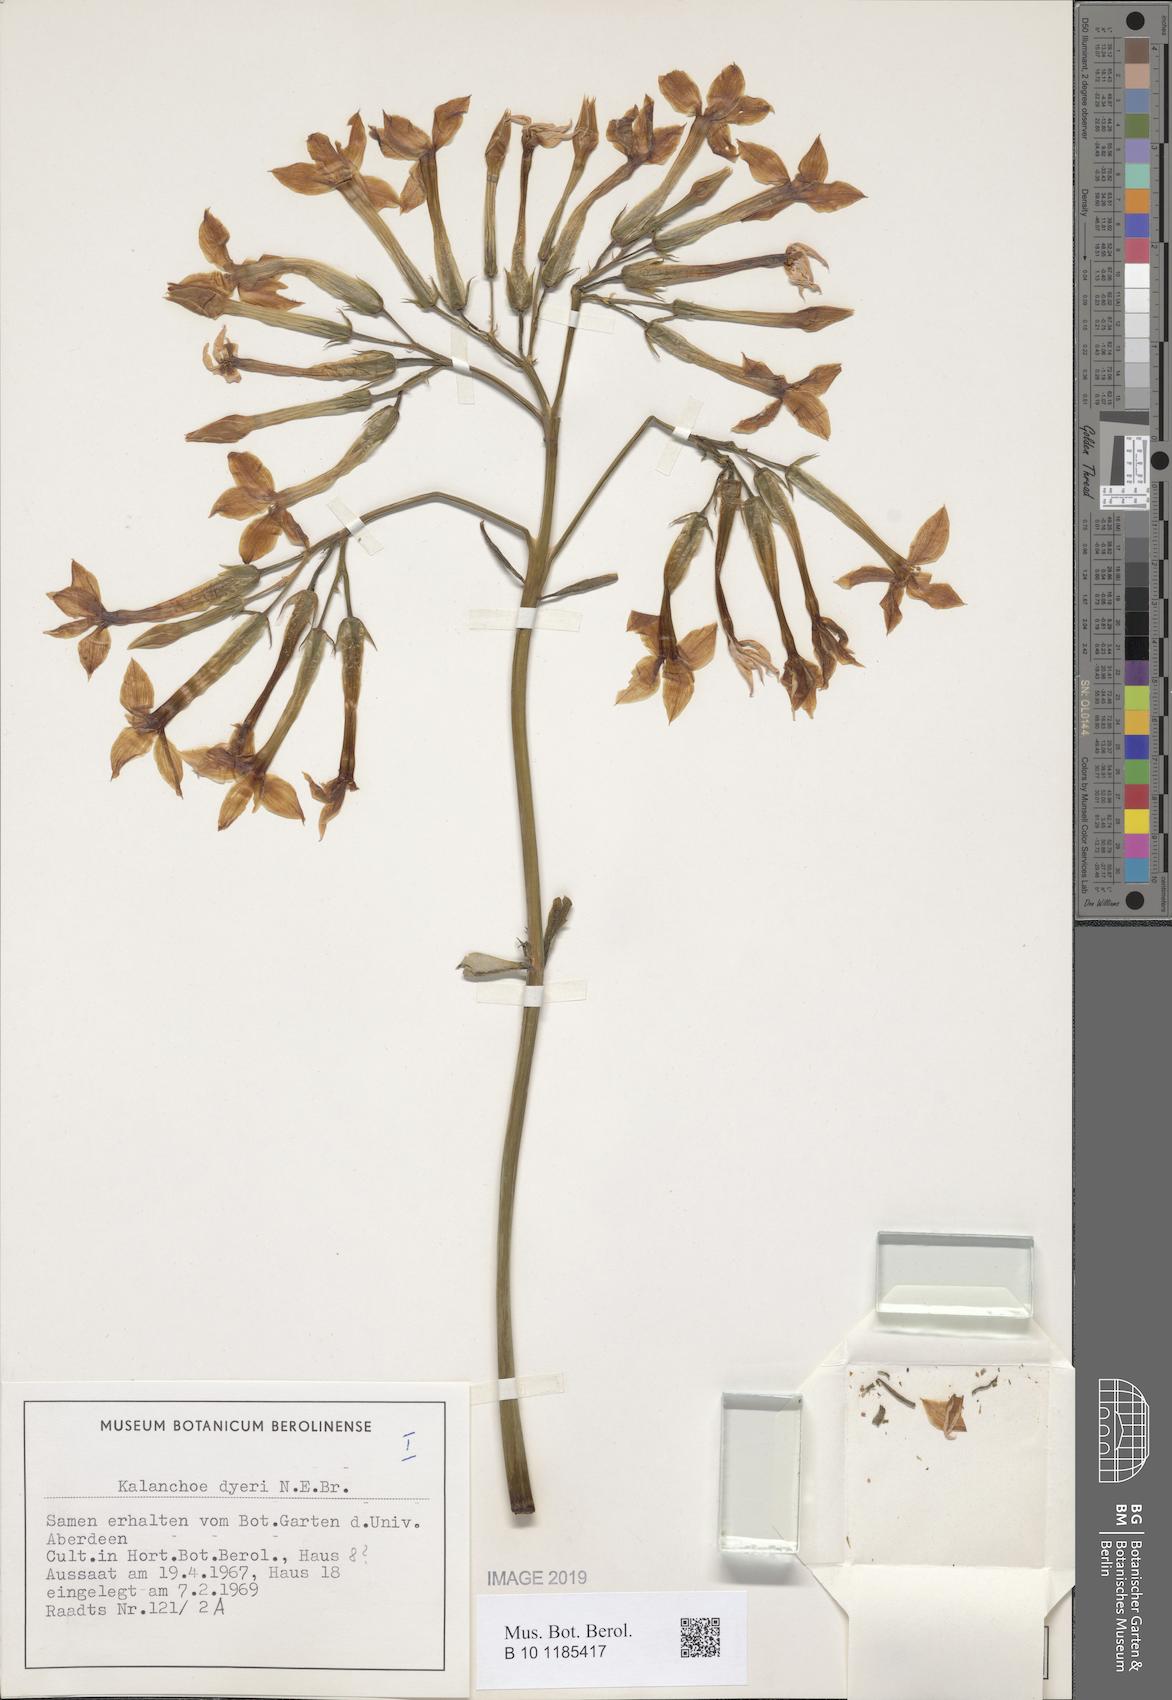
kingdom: Plantae
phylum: Tracheophyta
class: Magnoliopsida
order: Saxifragales
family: Crassulaceae
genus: Kalanchoe
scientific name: Kalanchoe dyeri
